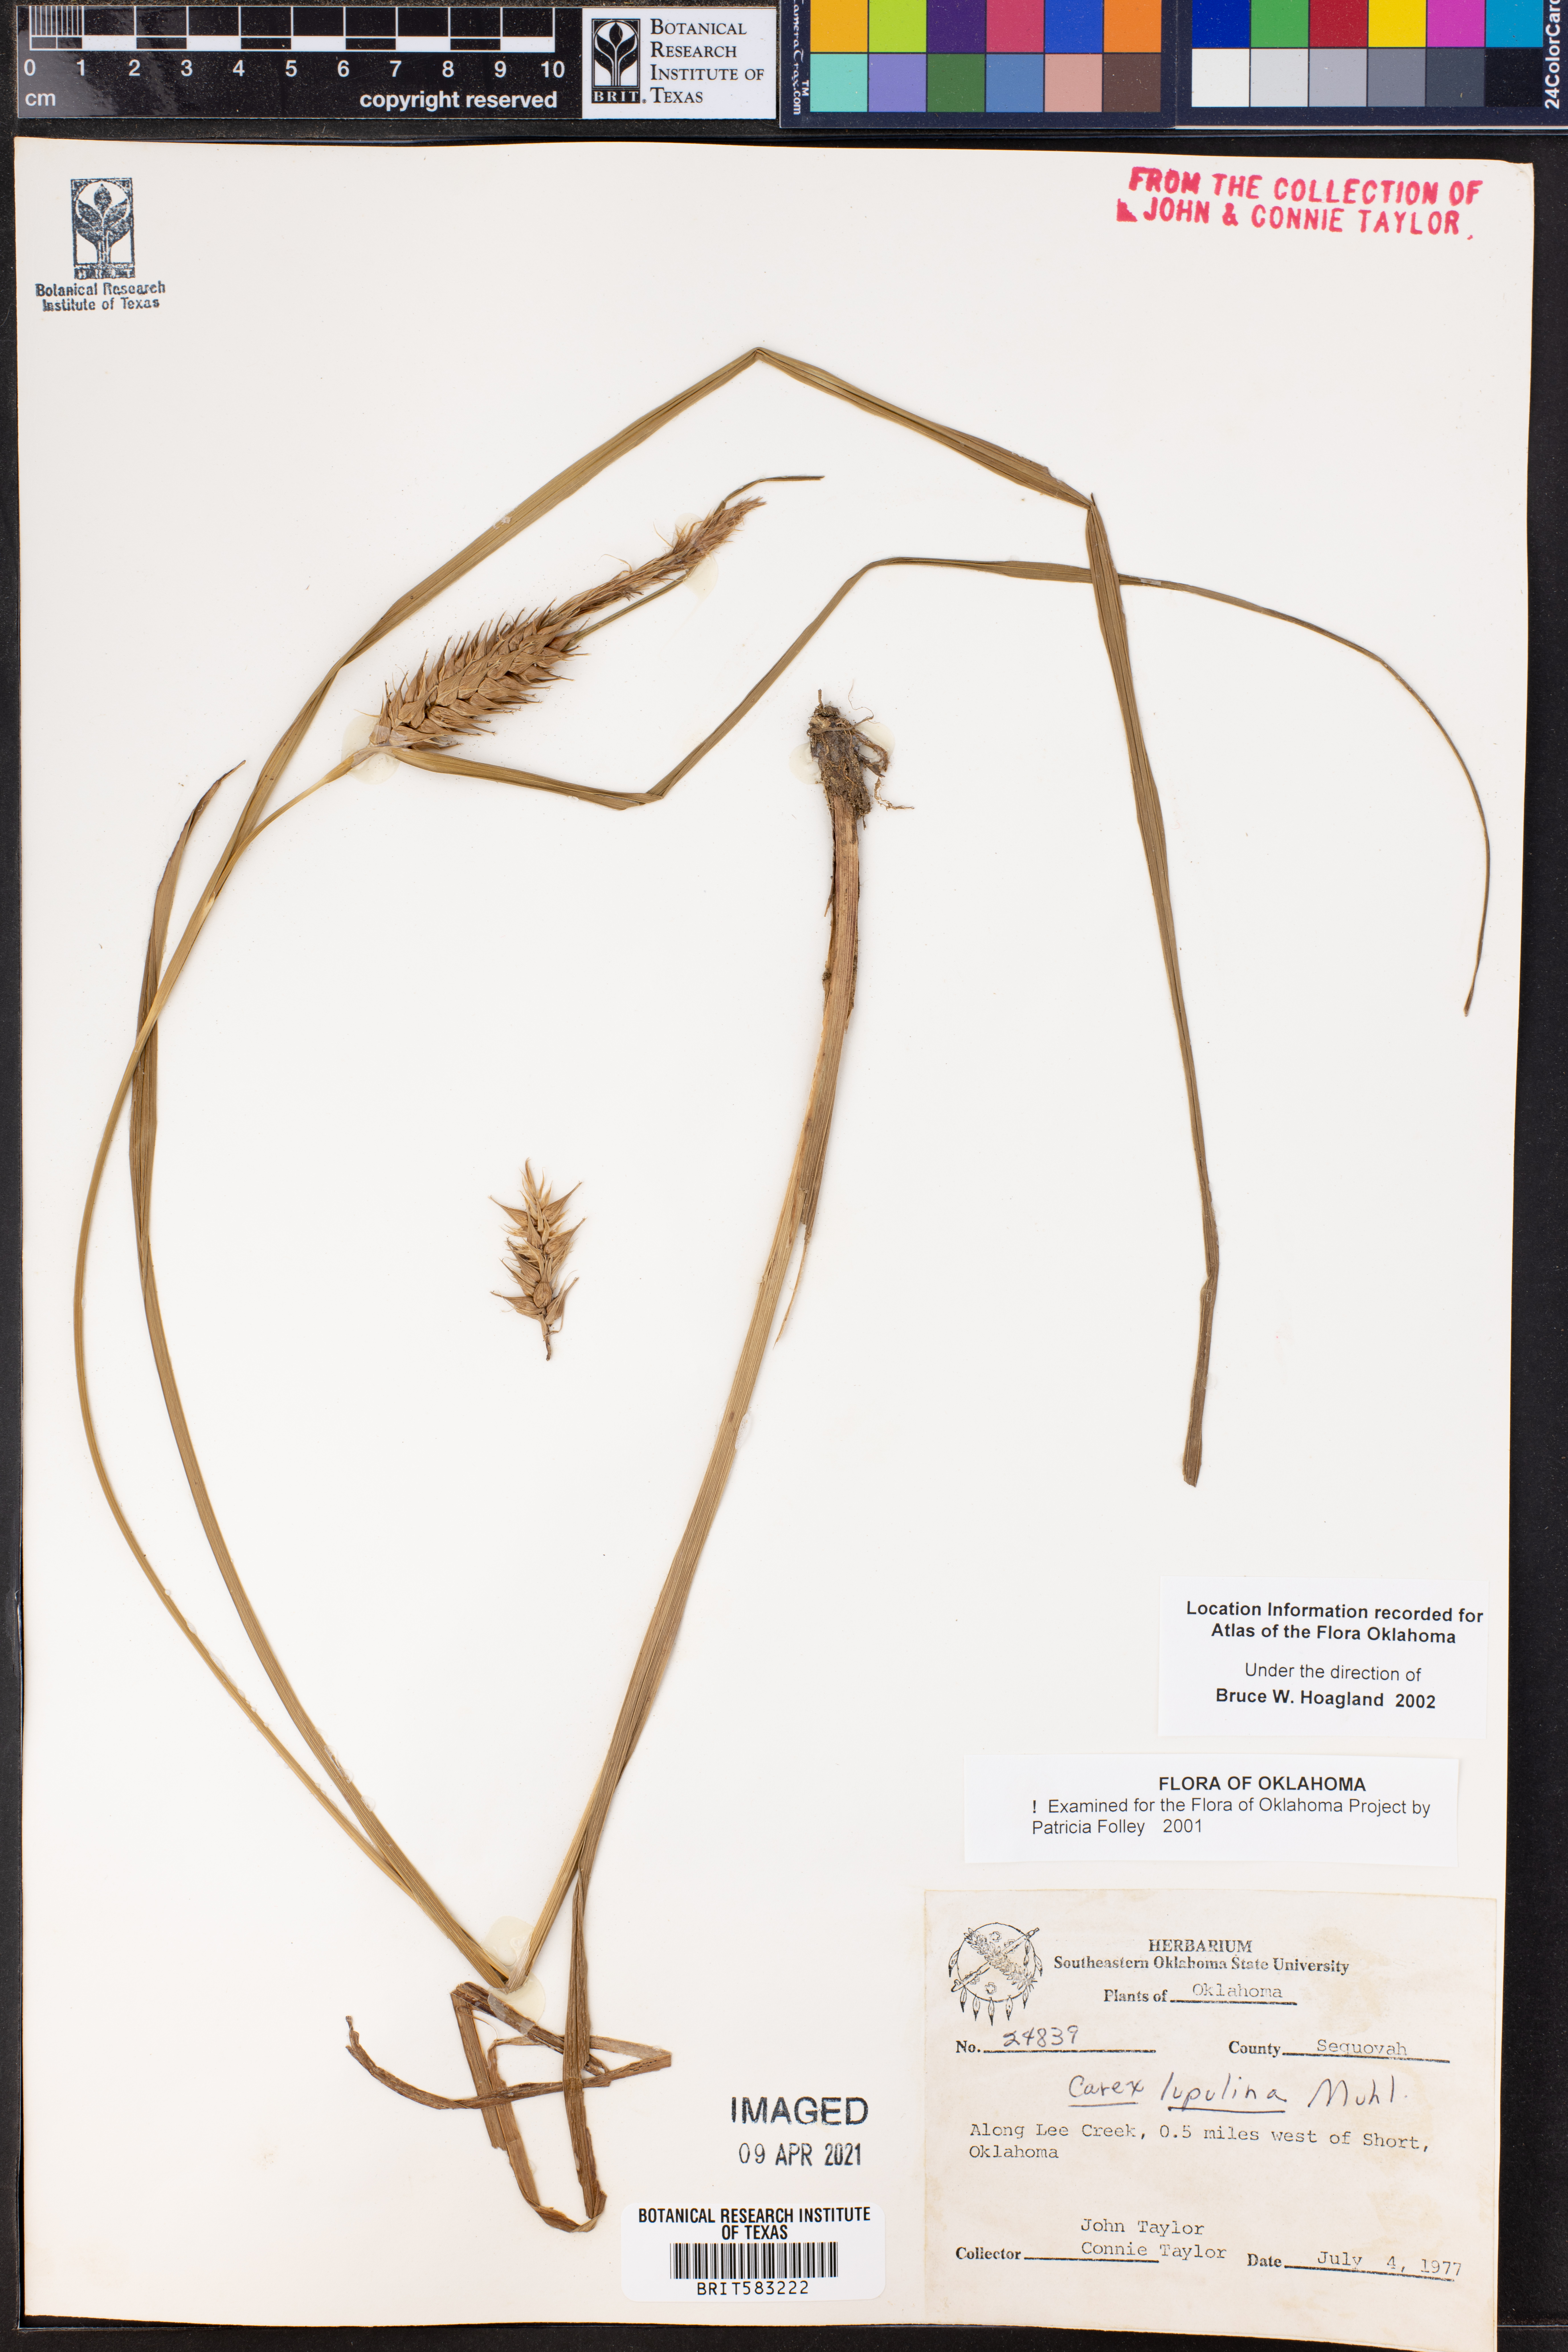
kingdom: Plantae
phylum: Tracheophyta
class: Liliopsida
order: Poales
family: Cyperaceae
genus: Carex
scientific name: Carex lupuliformis
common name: False hop sedge
